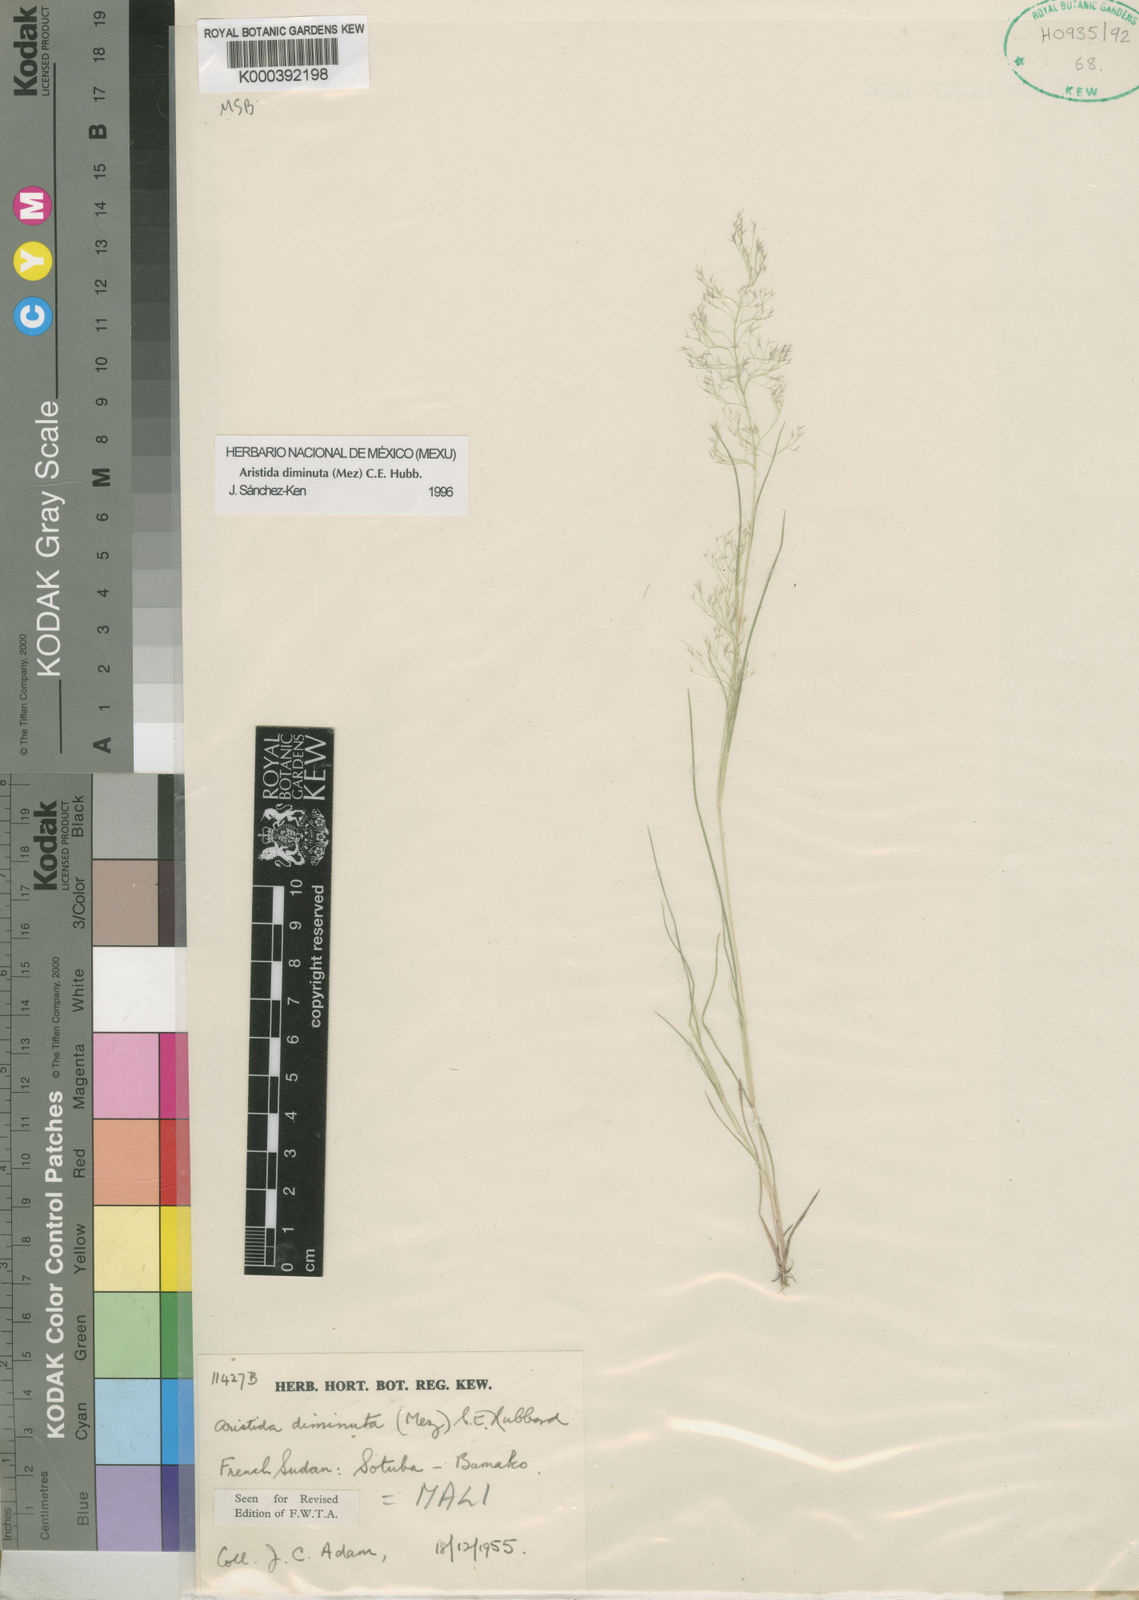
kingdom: Plantae
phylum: Tracheophyta
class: Liliopsida
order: Poales
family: Poaceae
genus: Aristida
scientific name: Aristida diminuta
